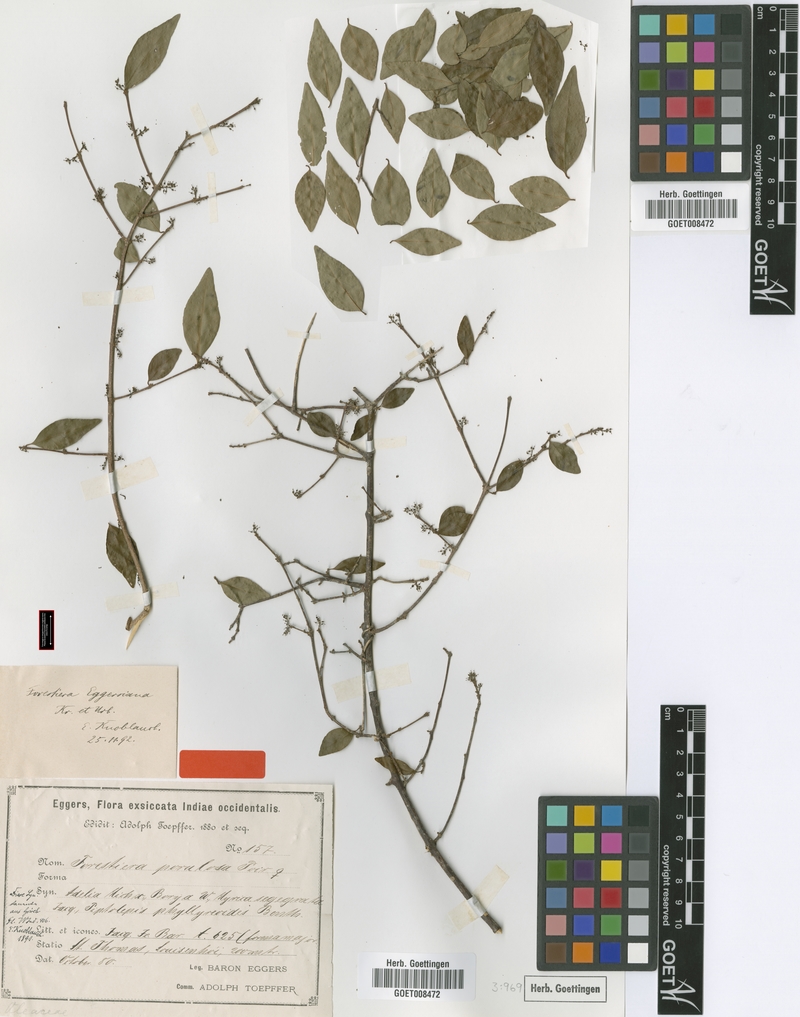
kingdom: Plantae
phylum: Tracheophyta
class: Magnoliopsida
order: Lamiales
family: Oleaceae
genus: Forestiera
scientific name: Forestiera eggersiana
